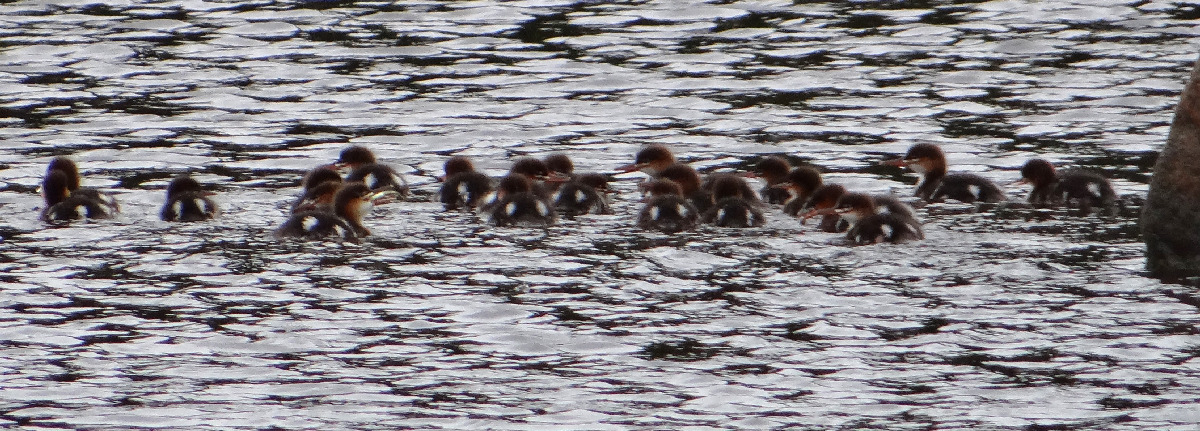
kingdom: Animalia
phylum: Chordata
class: Aves
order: Anseriformes
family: Anatidae
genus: Mergus
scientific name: Mergus serrator
